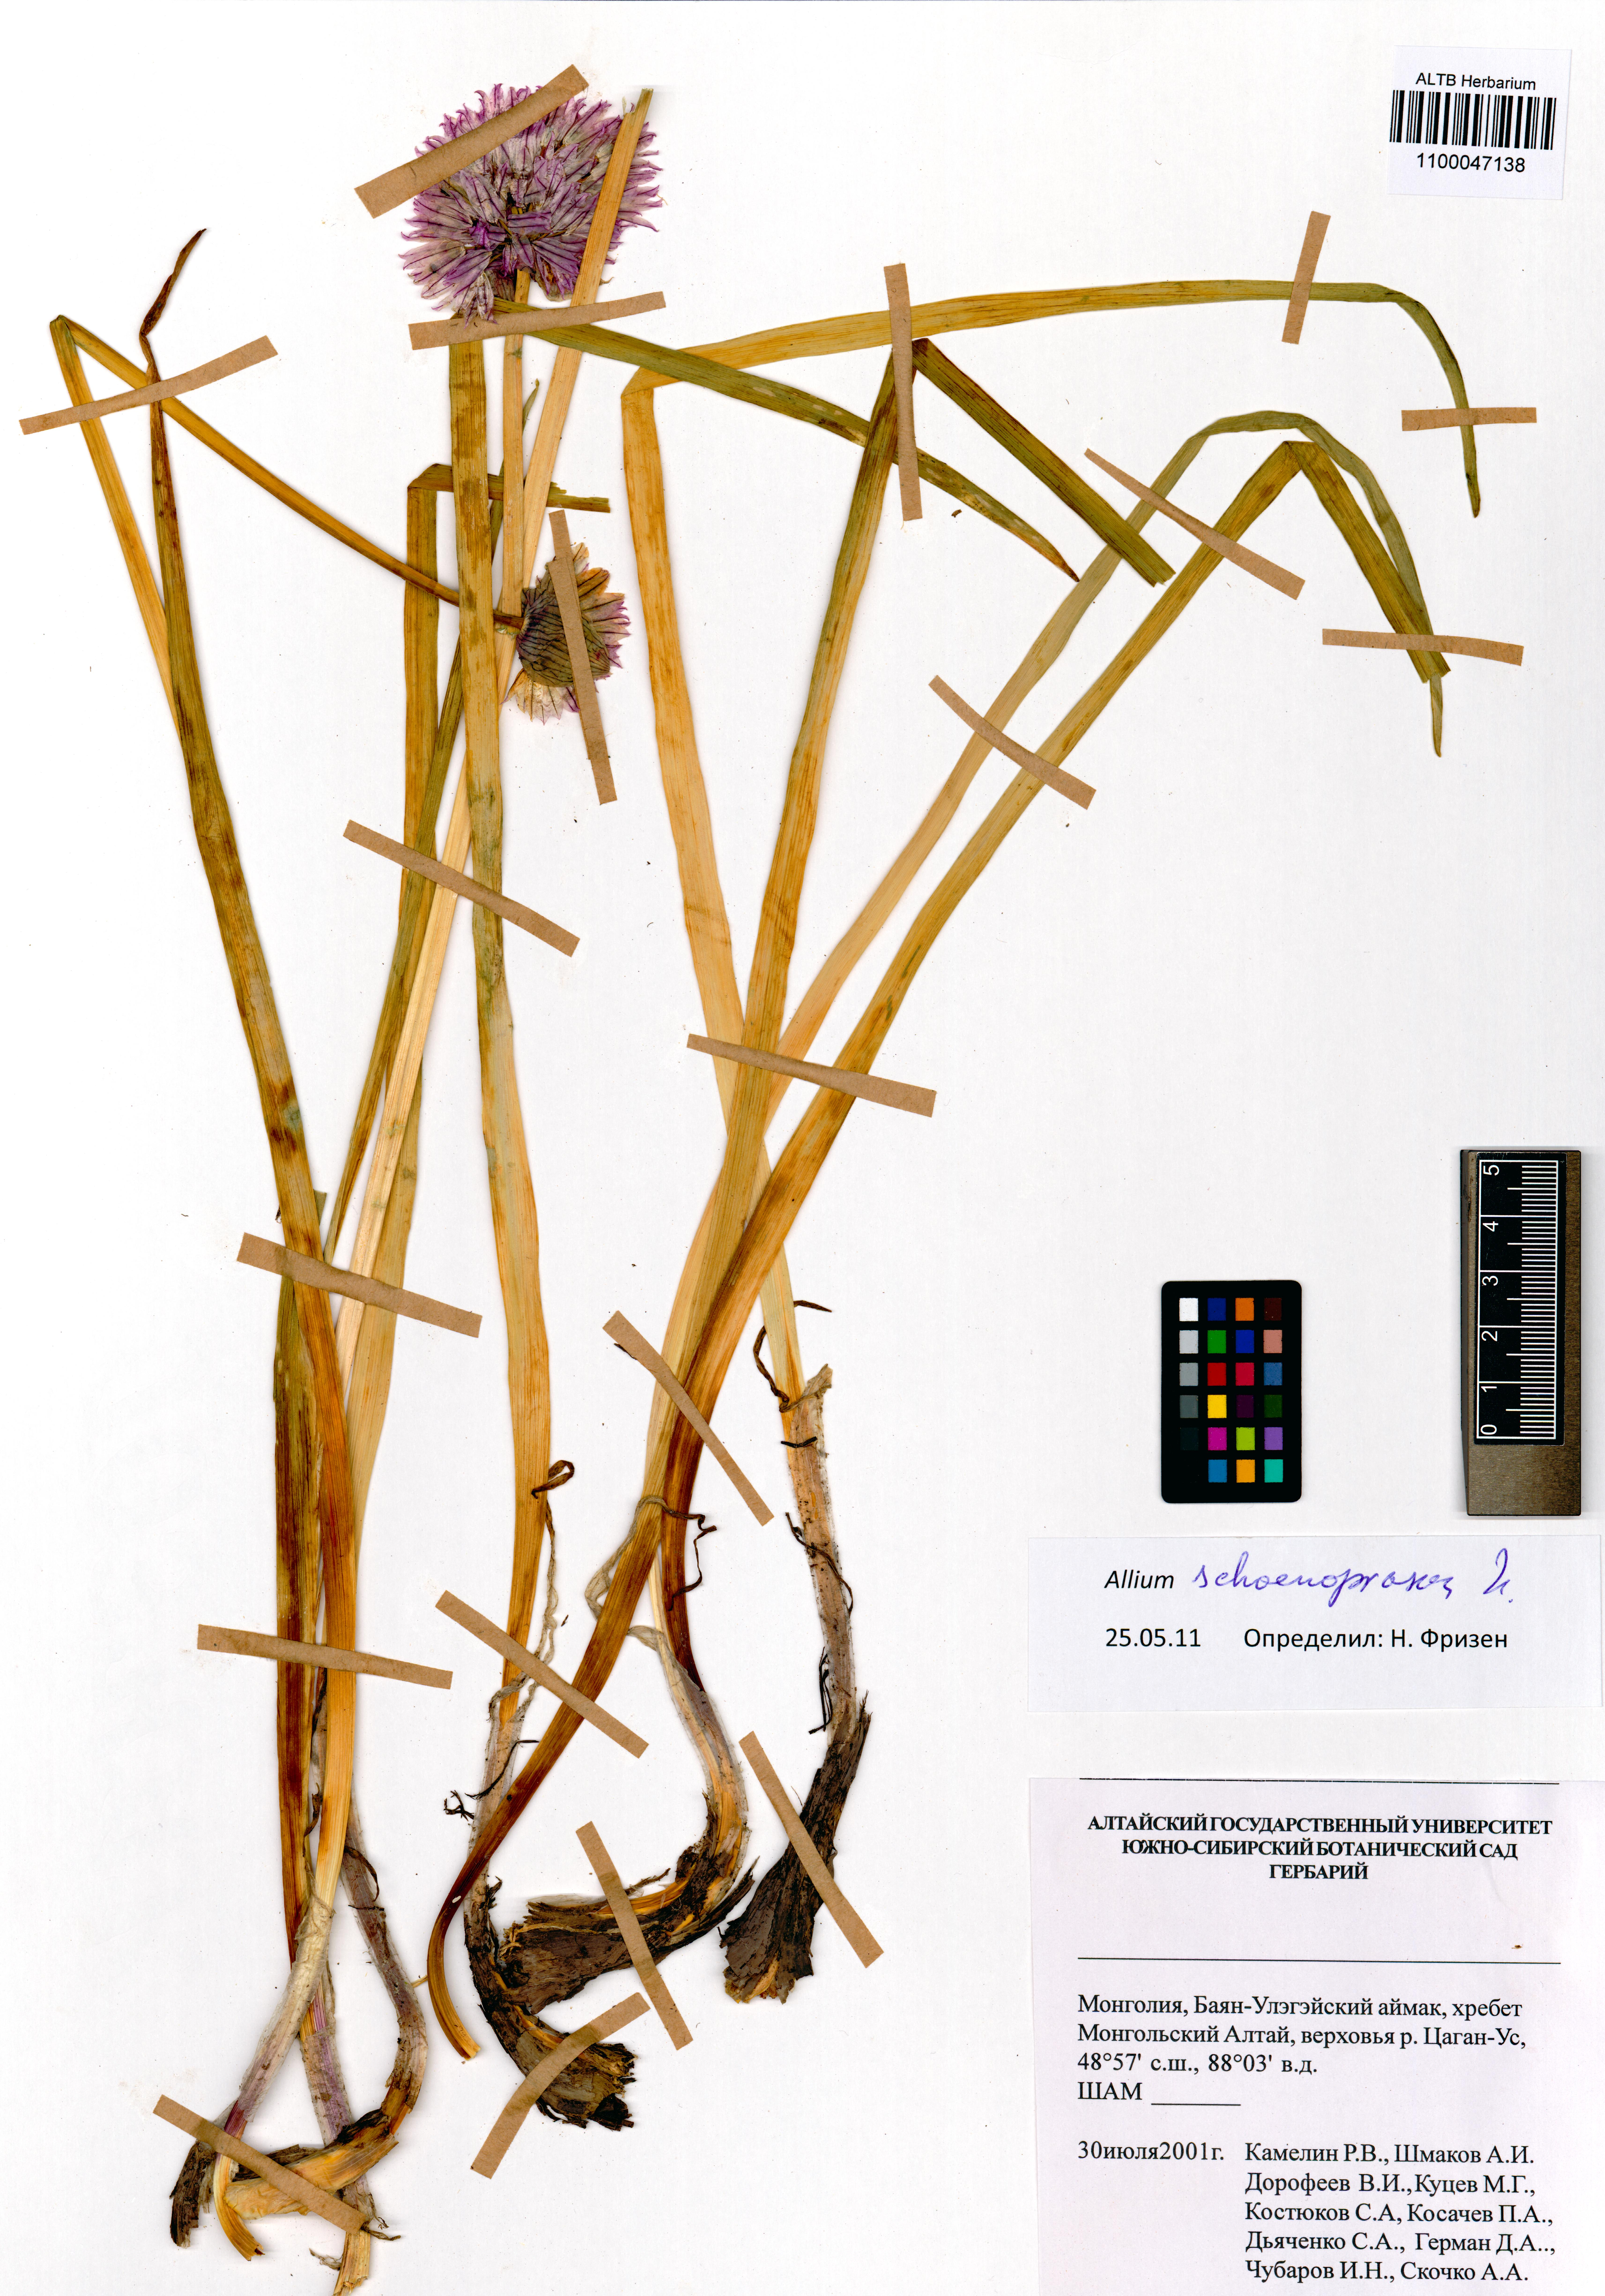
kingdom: Plantae
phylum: Tracheophyta
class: Liliopsida
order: Asparagales
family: Amaryllidaceae
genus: Allium
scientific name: Allium schoenoprasum
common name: Chives
